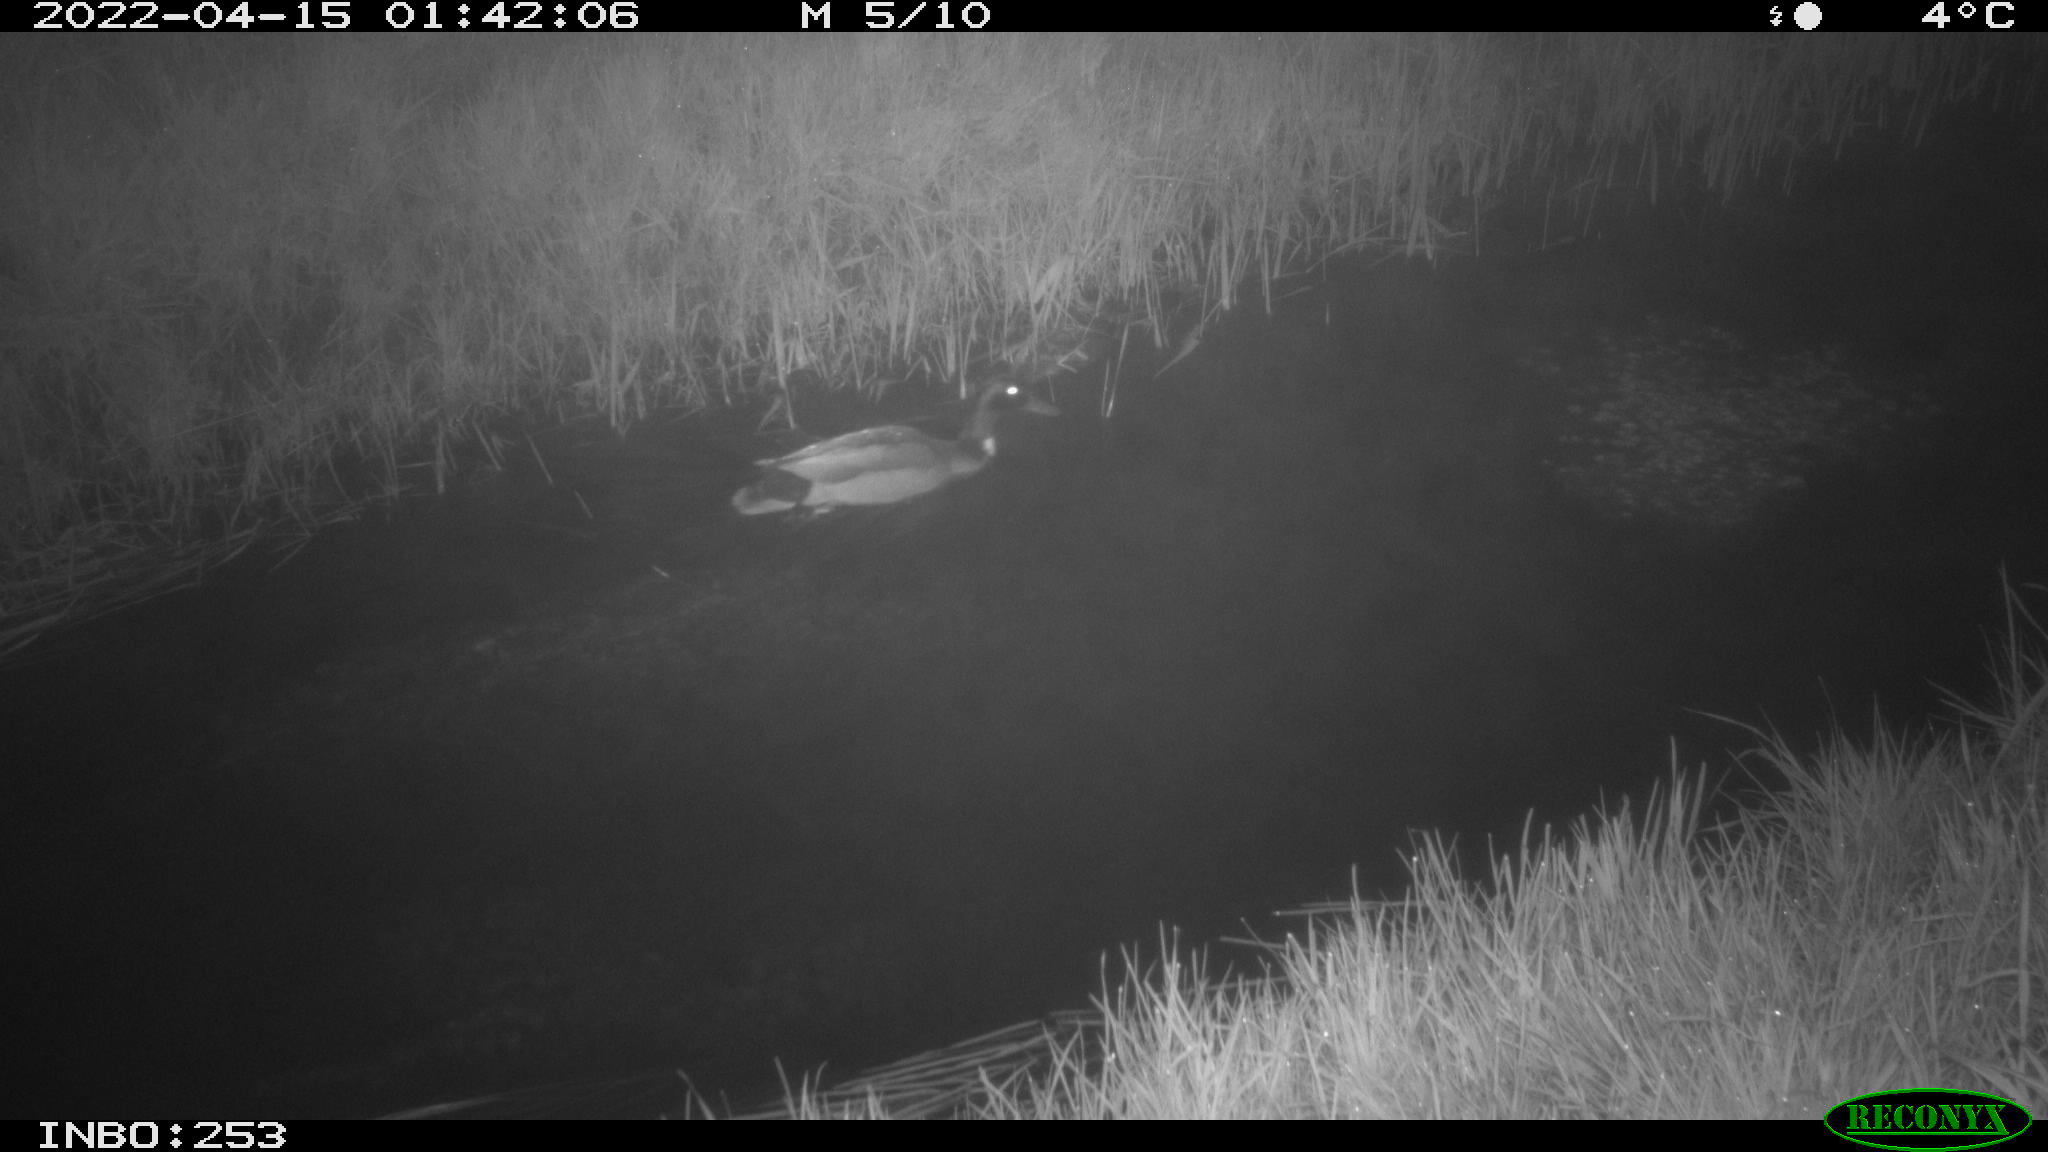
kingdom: Animalia
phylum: Chordata
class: Aves
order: Anseriformes
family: Anatidae
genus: Anas
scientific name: Anas platyrhynchos
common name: Mallard
